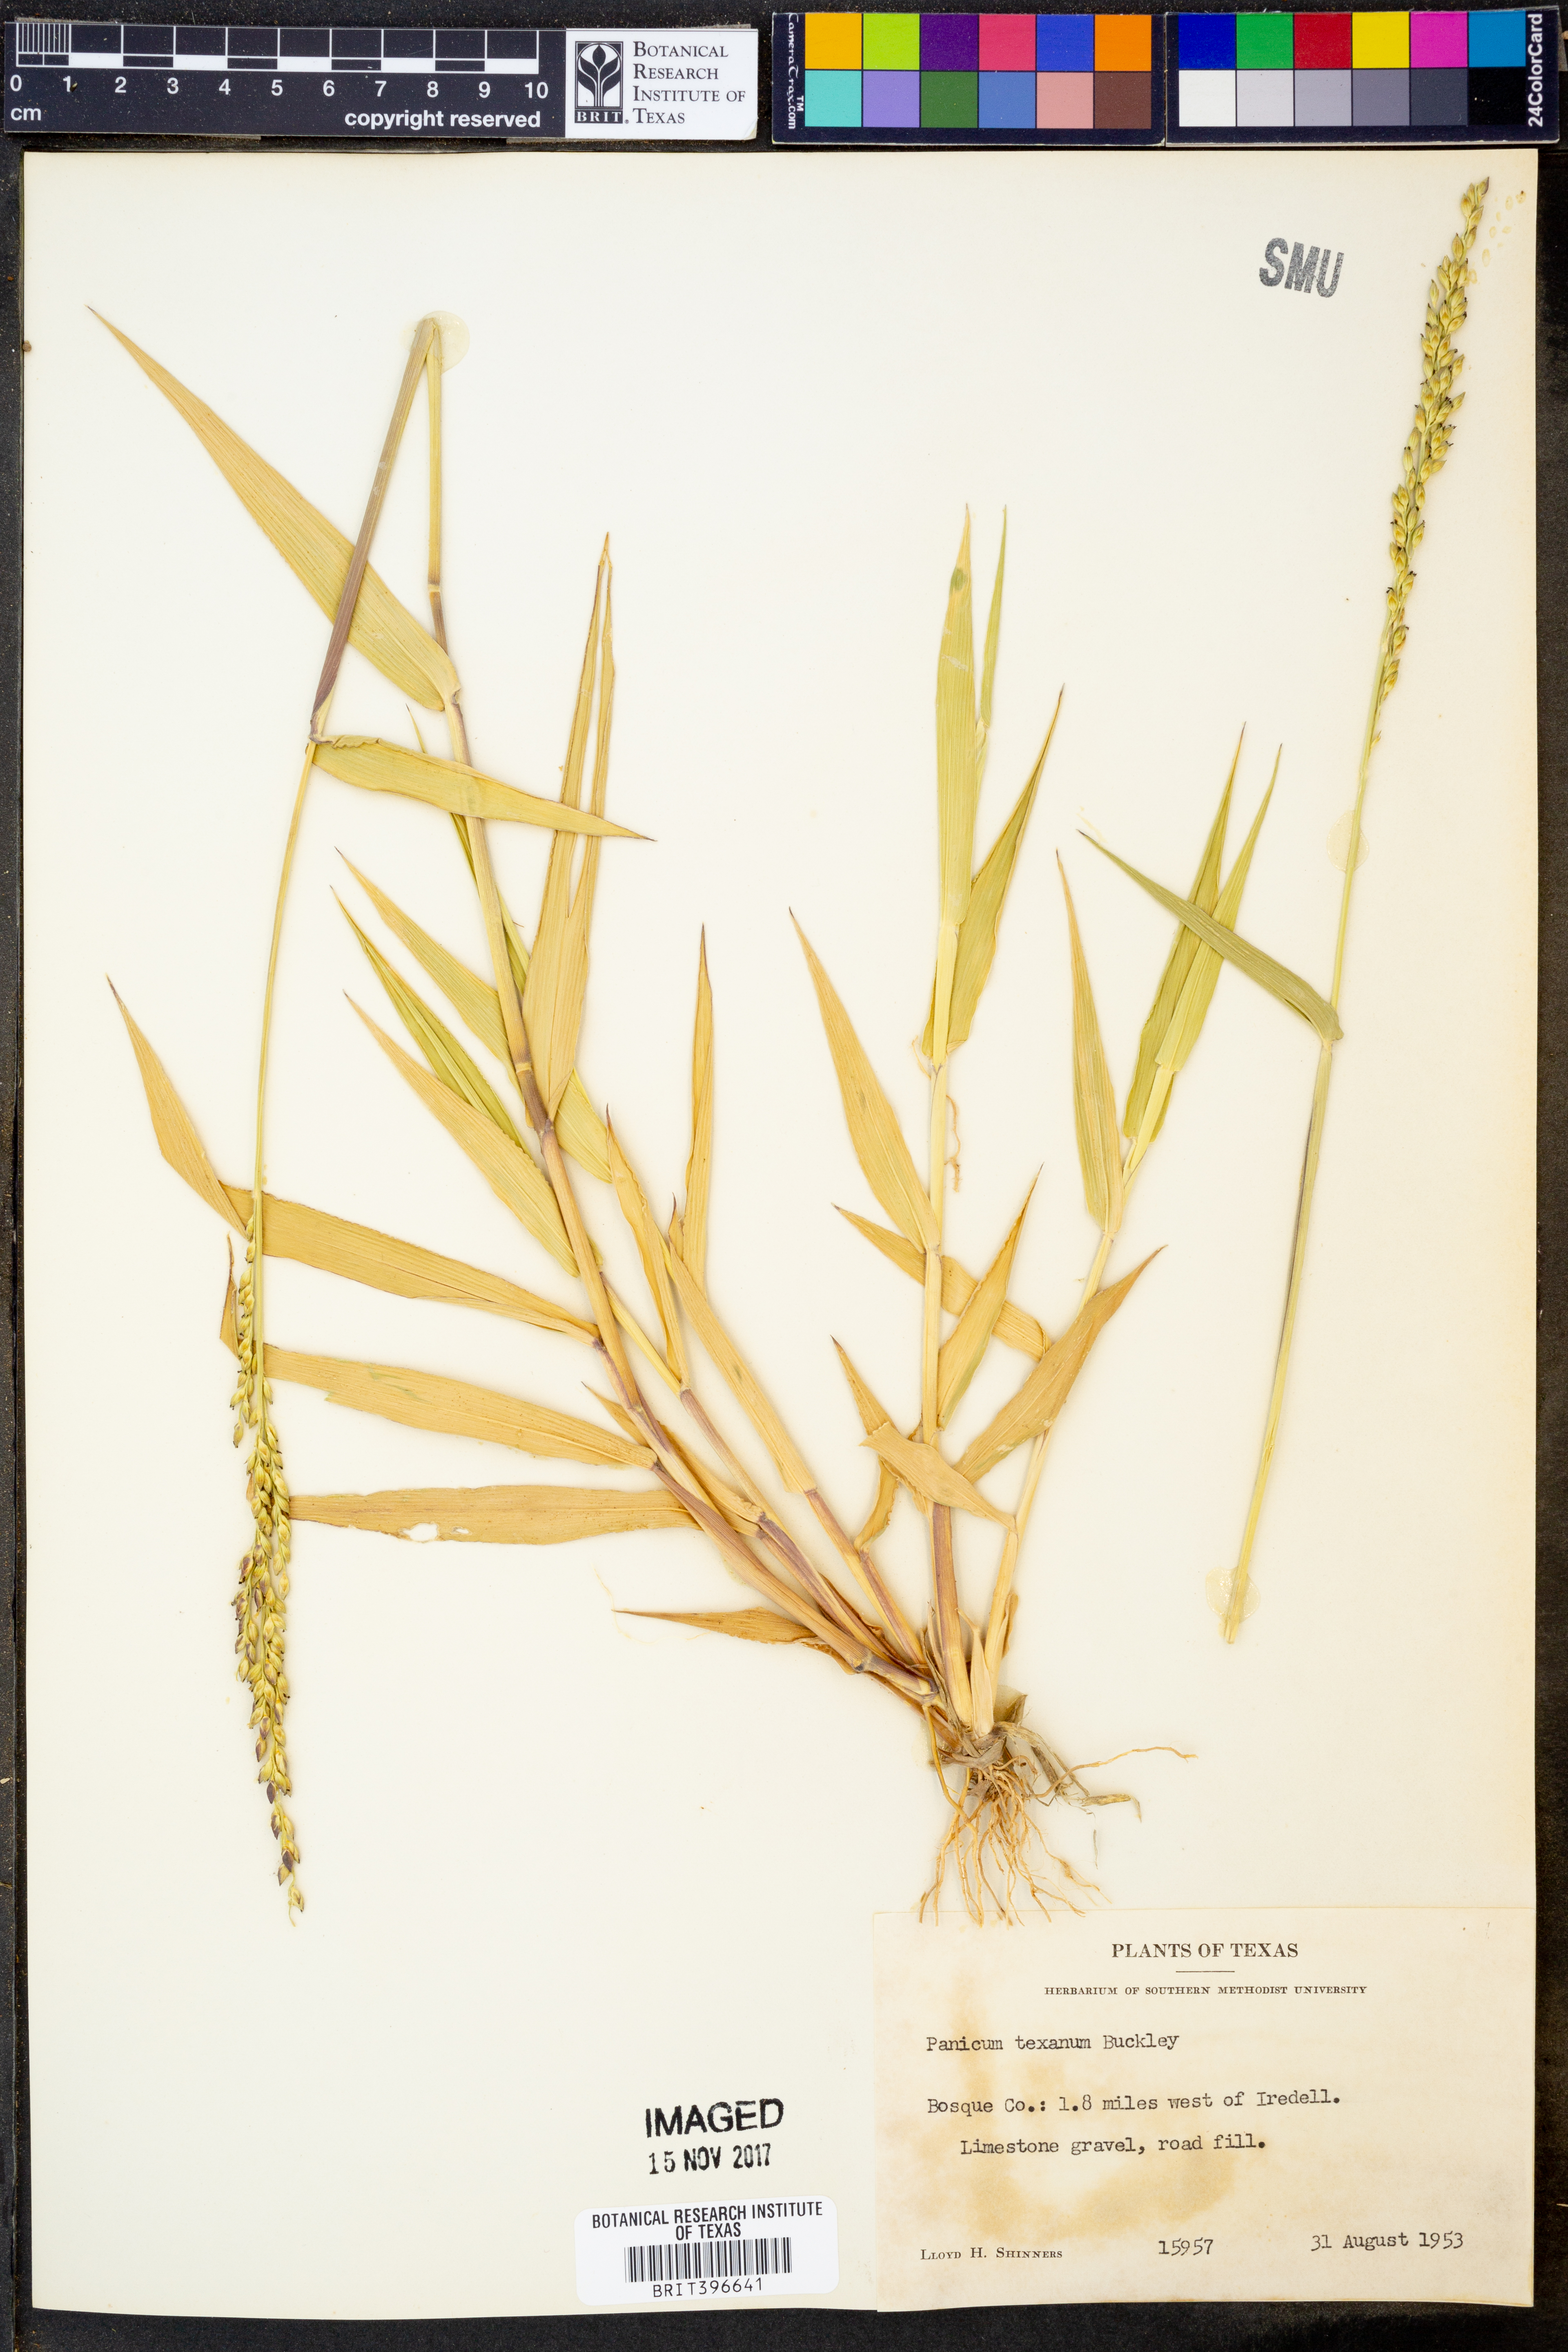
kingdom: Plantae
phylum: Tracheophyta
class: Liliopsida
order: Poales
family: Poaceae
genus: Urochloa
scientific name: Urochloa texana
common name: Texas millet
